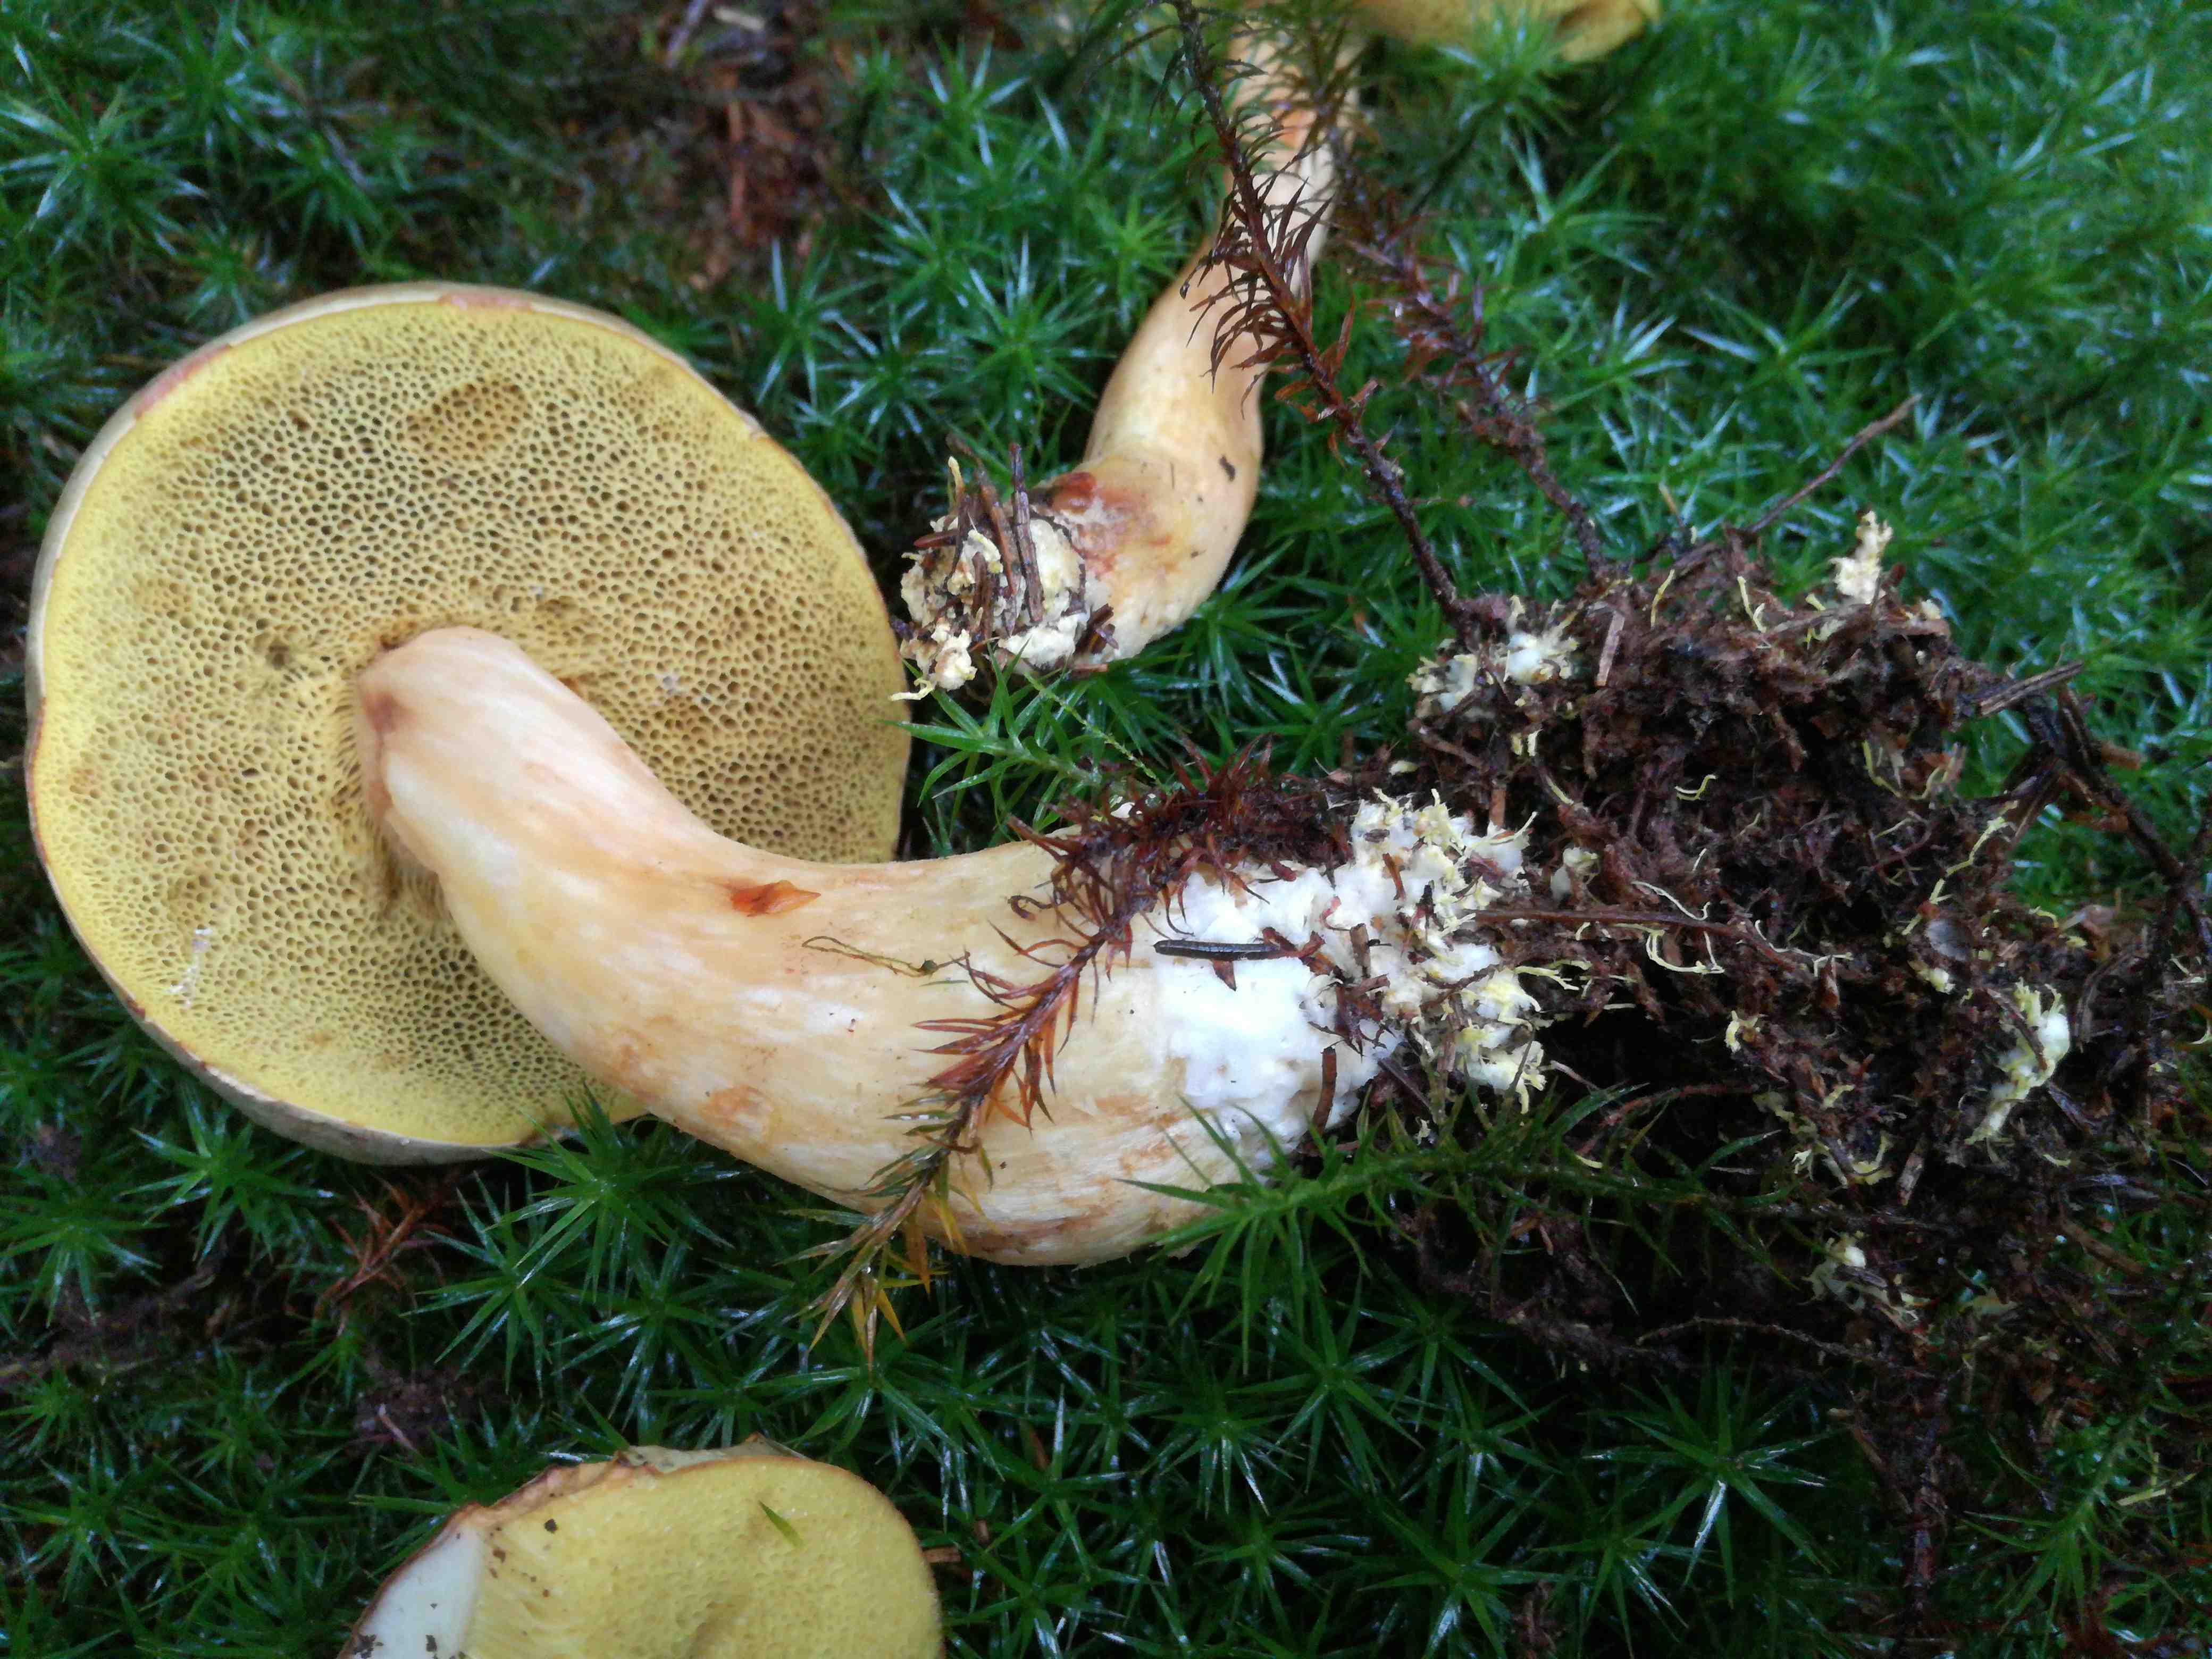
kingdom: Fungi
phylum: Basidiomycota
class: Agaricomycetes
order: Boletales
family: Boletaceae
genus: Xerocomus
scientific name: Xerocomus ferrugineus
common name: vaskeskinds-rørhat
